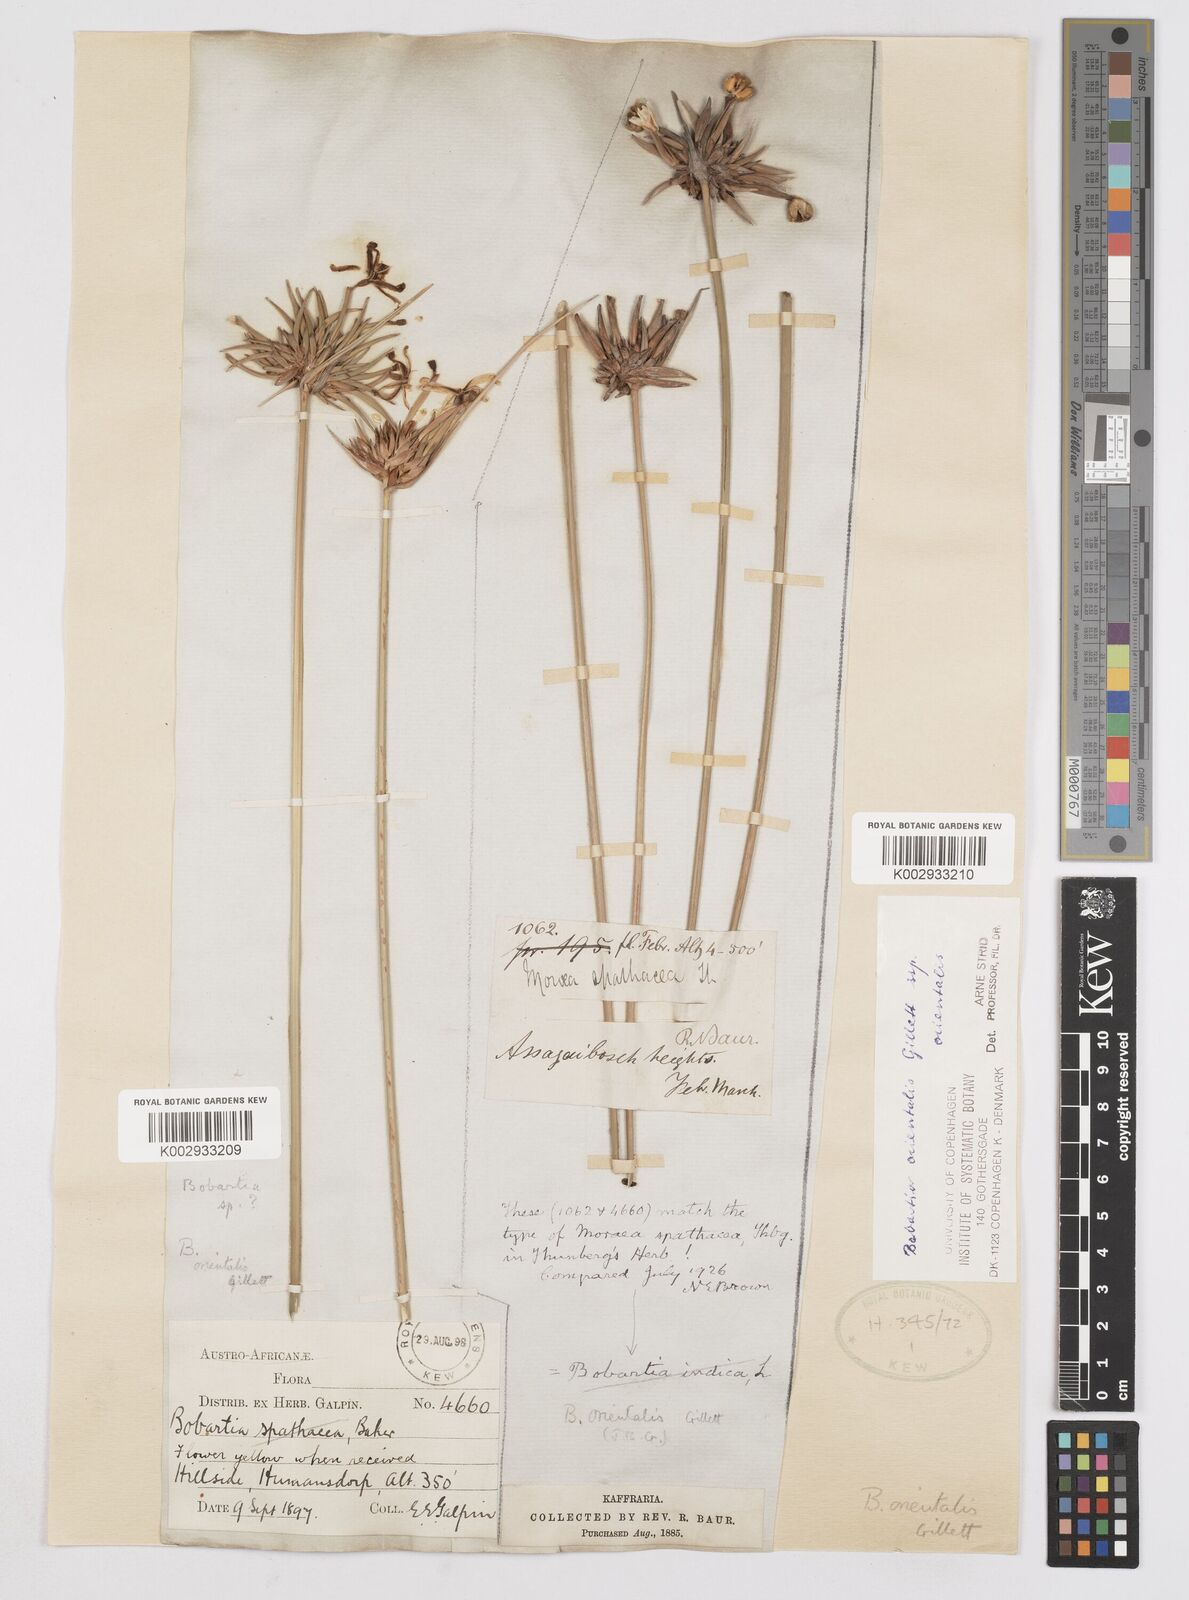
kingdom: Plantae
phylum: Tracheophyta
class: Liliopsida
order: Asparagales
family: Iridaceae
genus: Bobartia
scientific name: Bobartia orientalis
